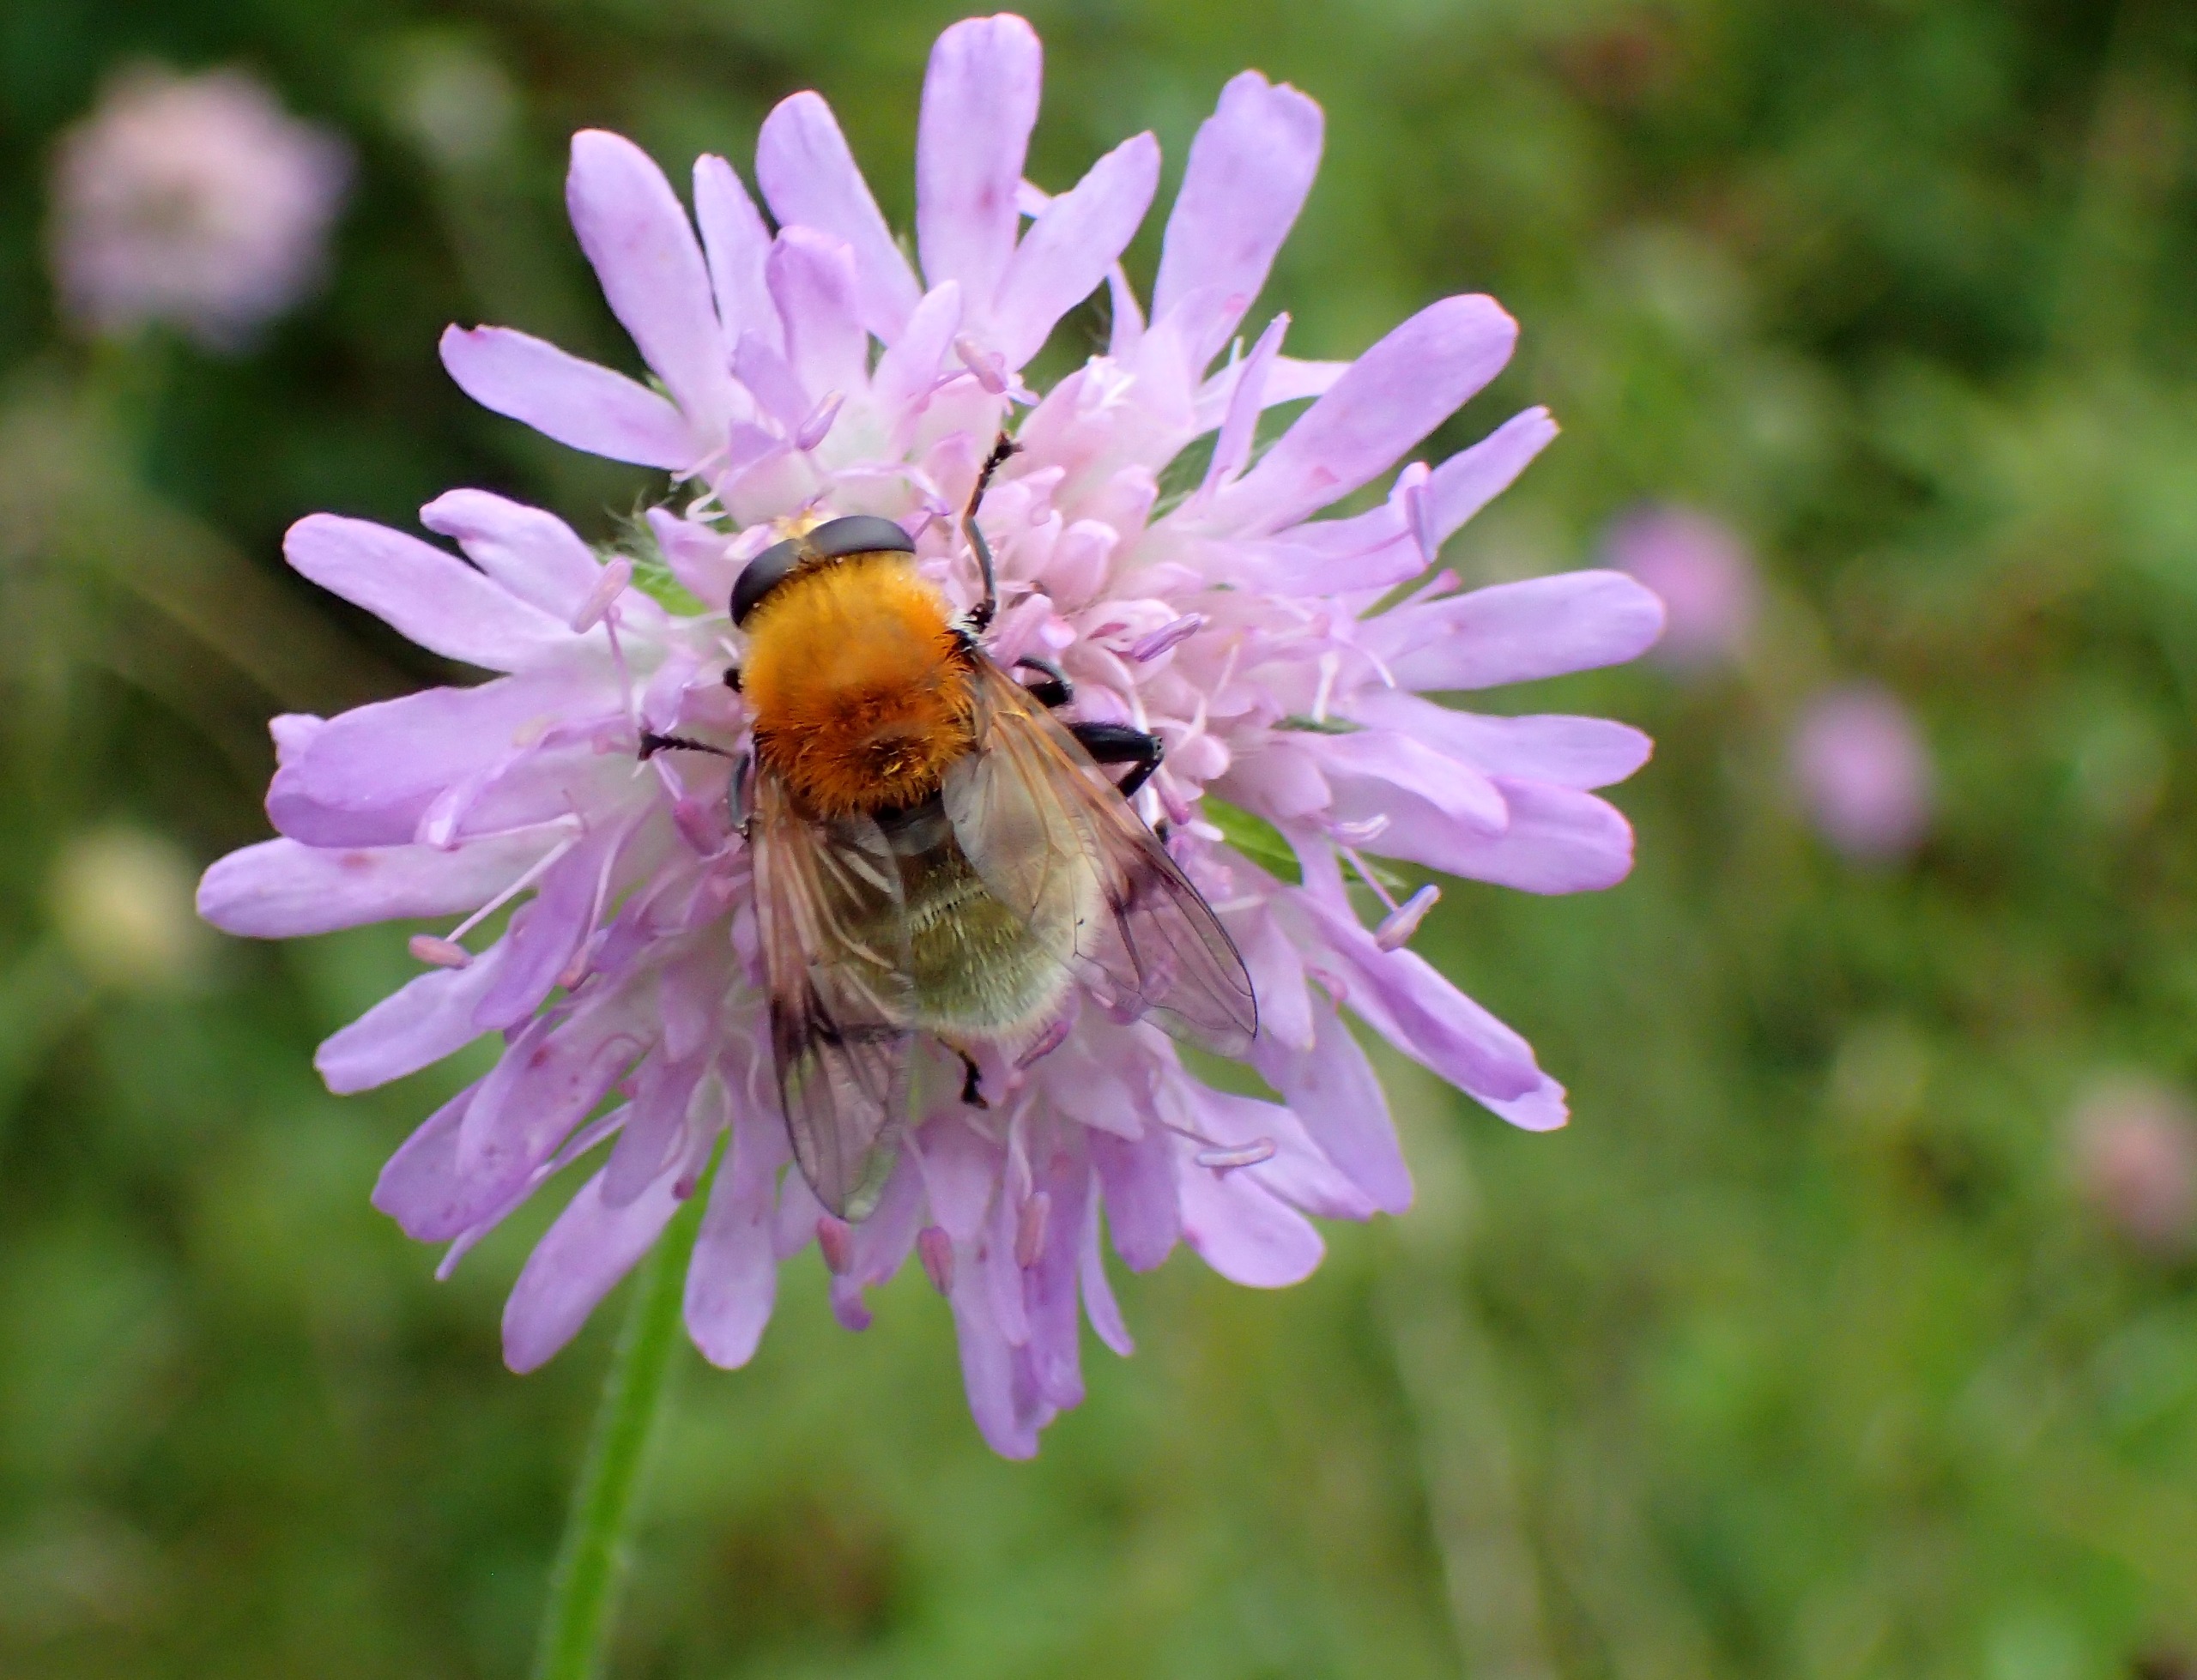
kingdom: Animalia
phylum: Arthropoda
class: Insecta
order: Diptera
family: Syrphidae
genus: Sericomyia
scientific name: Sericomyia superbiens
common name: Brun bjørnesvirreflue
